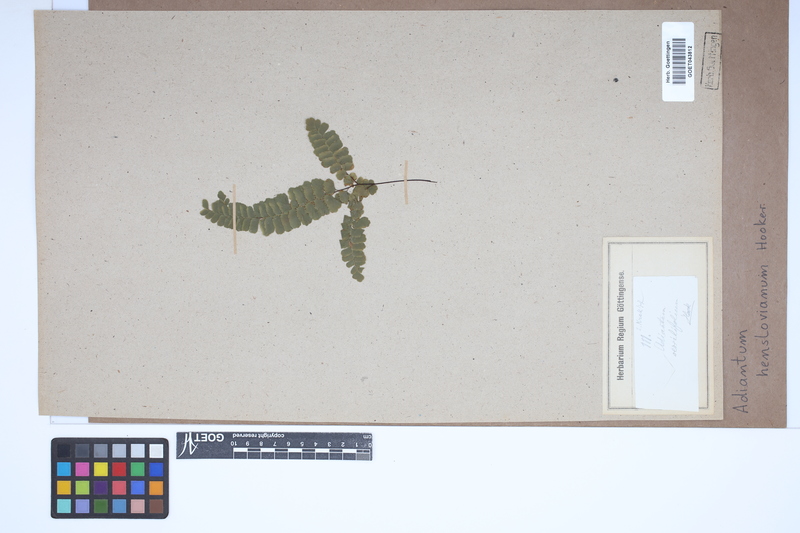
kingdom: Plantae
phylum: Tracheophyta
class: Polypodiopsida
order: Polypodiales
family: Pteridaceae
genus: Adiantum
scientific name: Adiantum henslovianum
